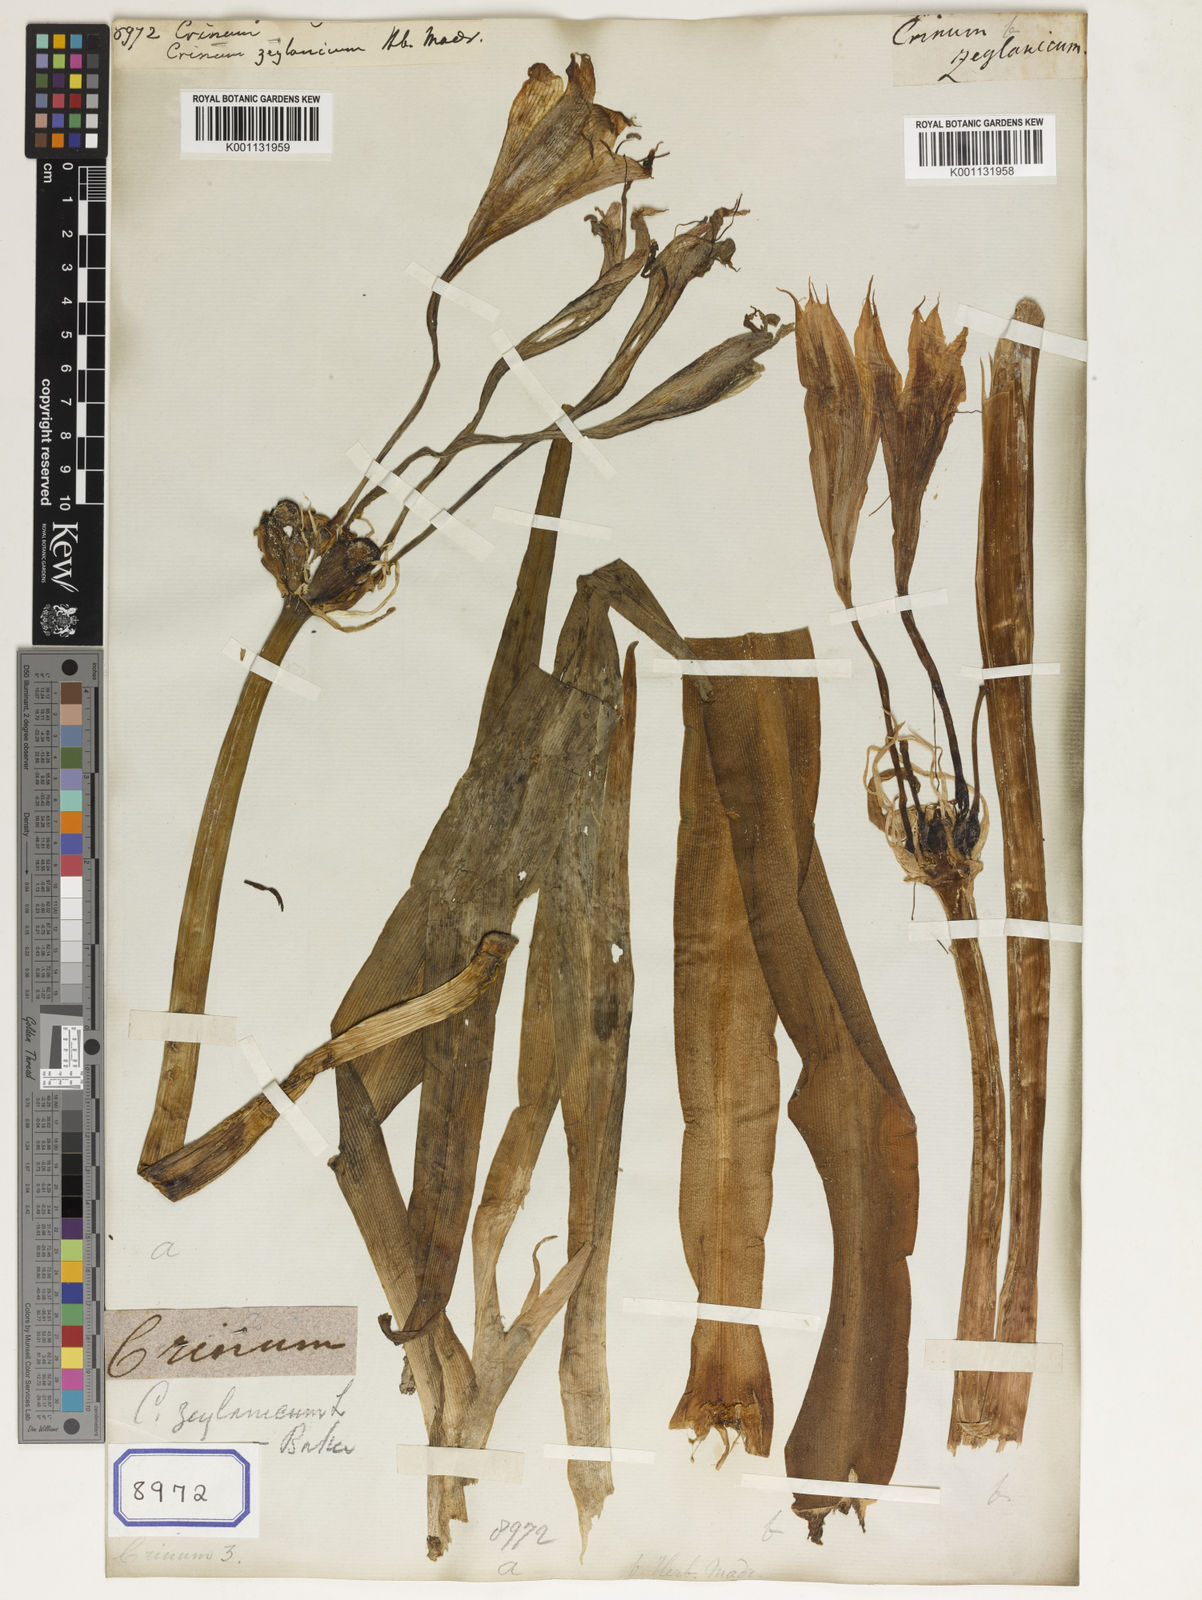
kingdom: Plantae
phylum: Tracheophyta
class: Liliopsida
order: Asparagales
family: Amaryllidaceae
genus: Crinum
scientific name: Crinum
